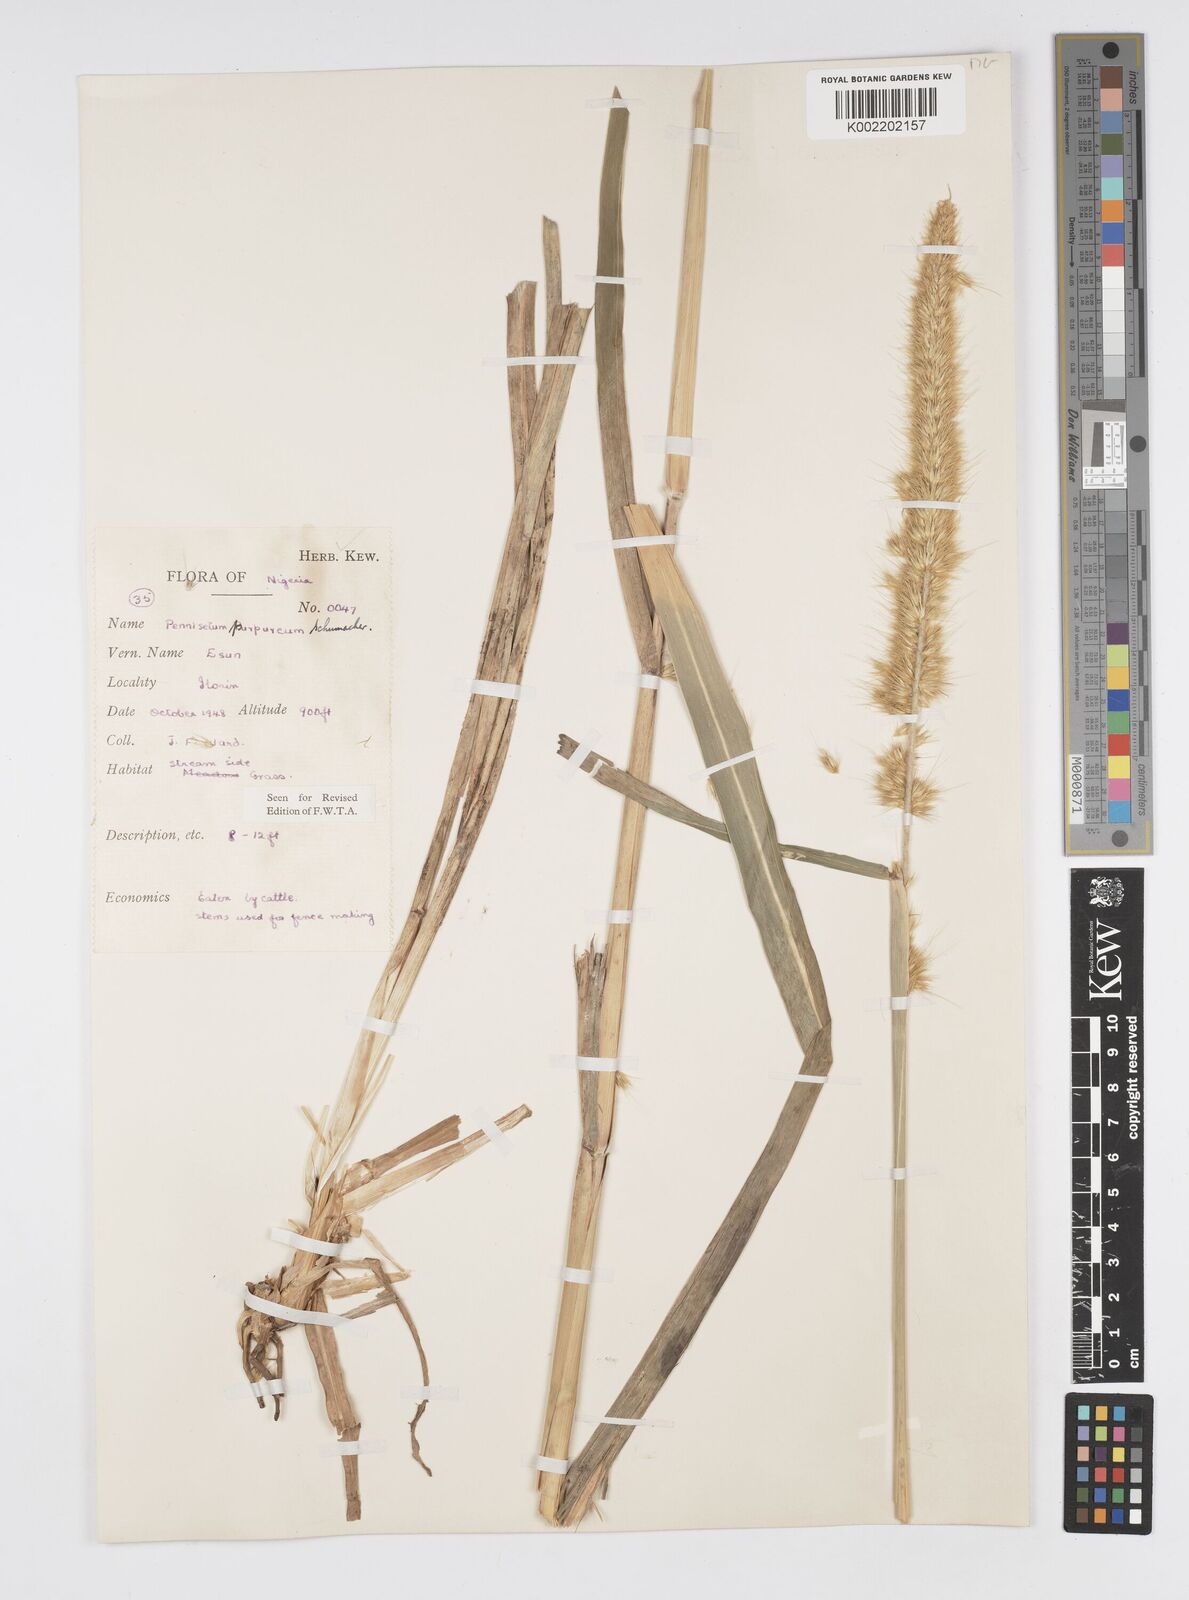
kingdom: Plantae
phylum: Tracheophyta
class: Liliopsida
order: Poales
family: Poaceae
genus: Cenchrus
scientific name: Cenchrus purpureus
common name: Elephant grass
